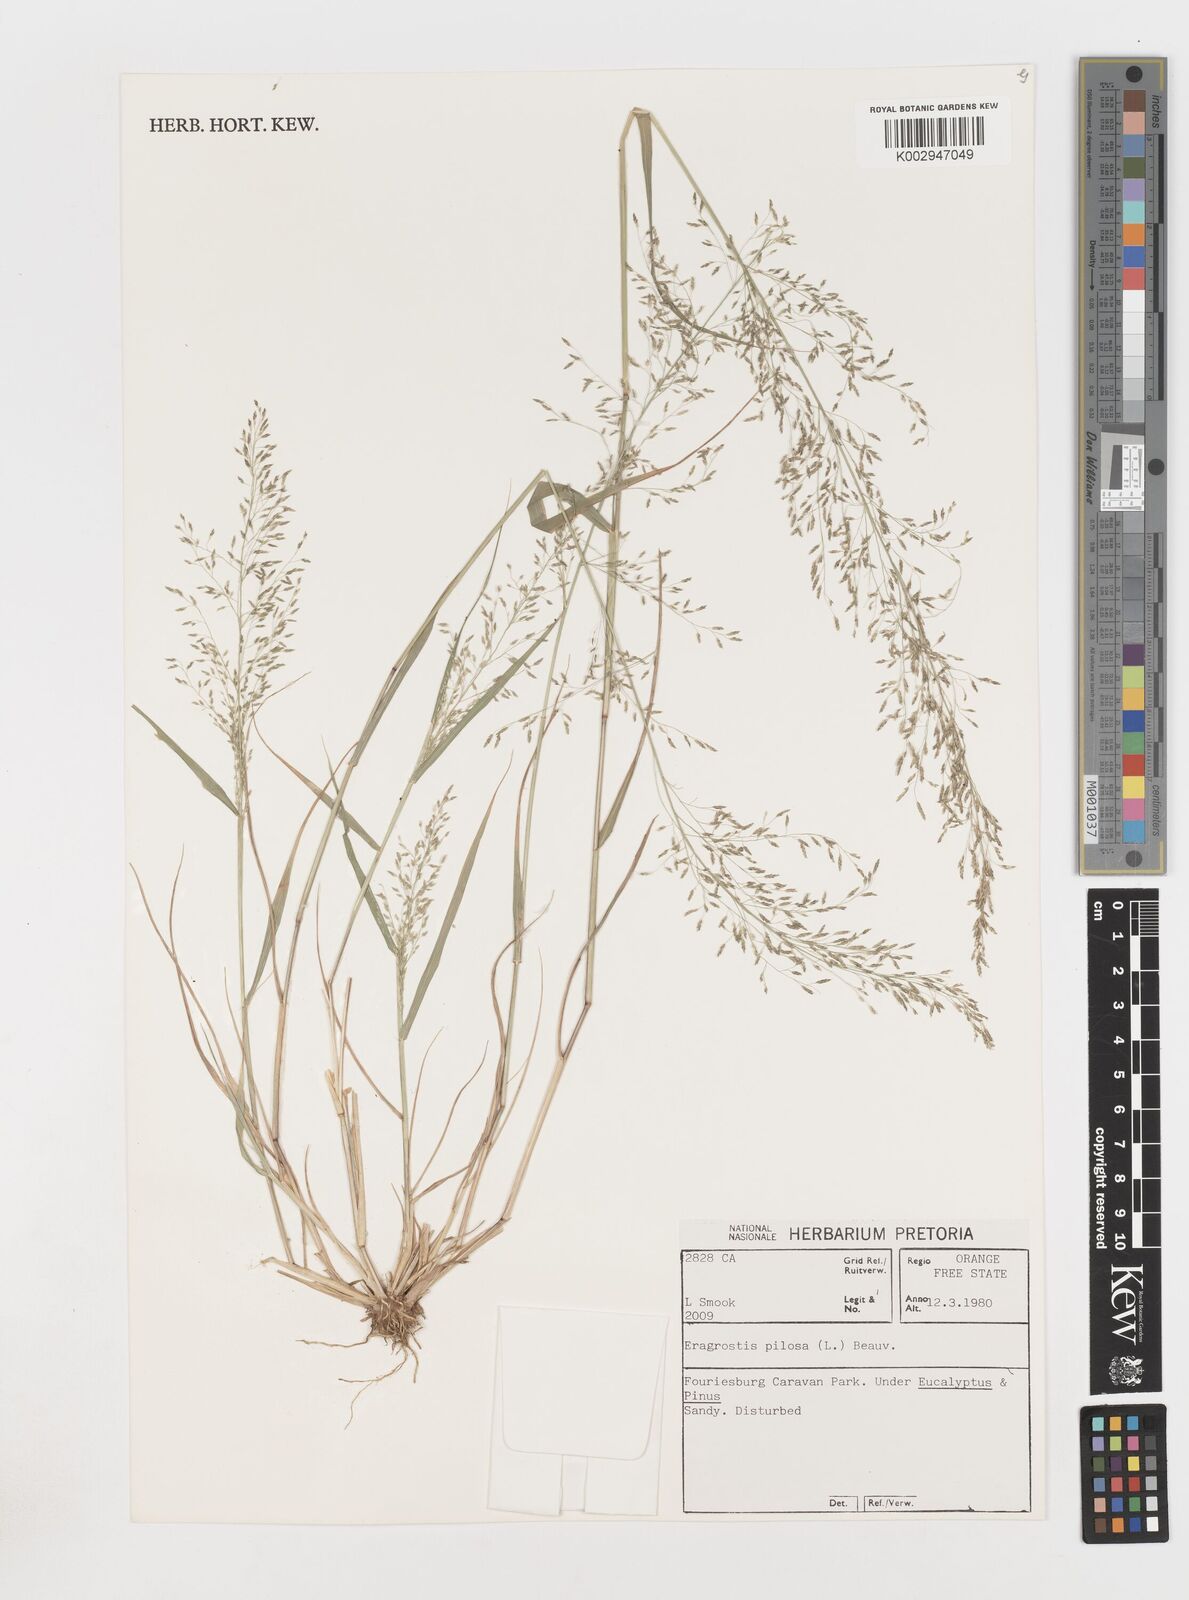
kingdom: Plantae
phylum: Tracheophyta
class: Liliopsida
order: Poales
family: Poaceae
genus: Eragrostis
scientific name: Eragrostis pilosa
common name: Indian lovegrass
